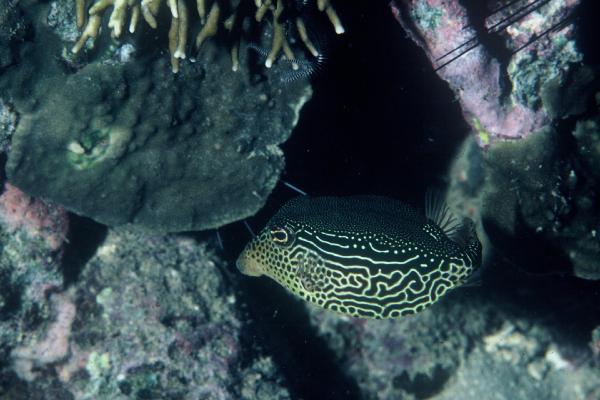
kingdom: Animalia
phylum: Chordata
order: Tetraodontiformes
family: Ostraciidae
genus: Ostracion
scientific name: Ostracion solorense
